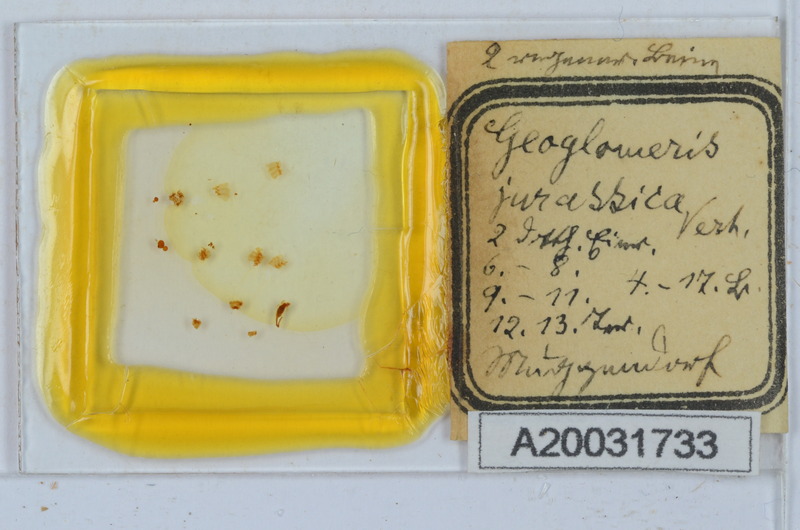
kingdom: Animalia
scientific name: Animalia
